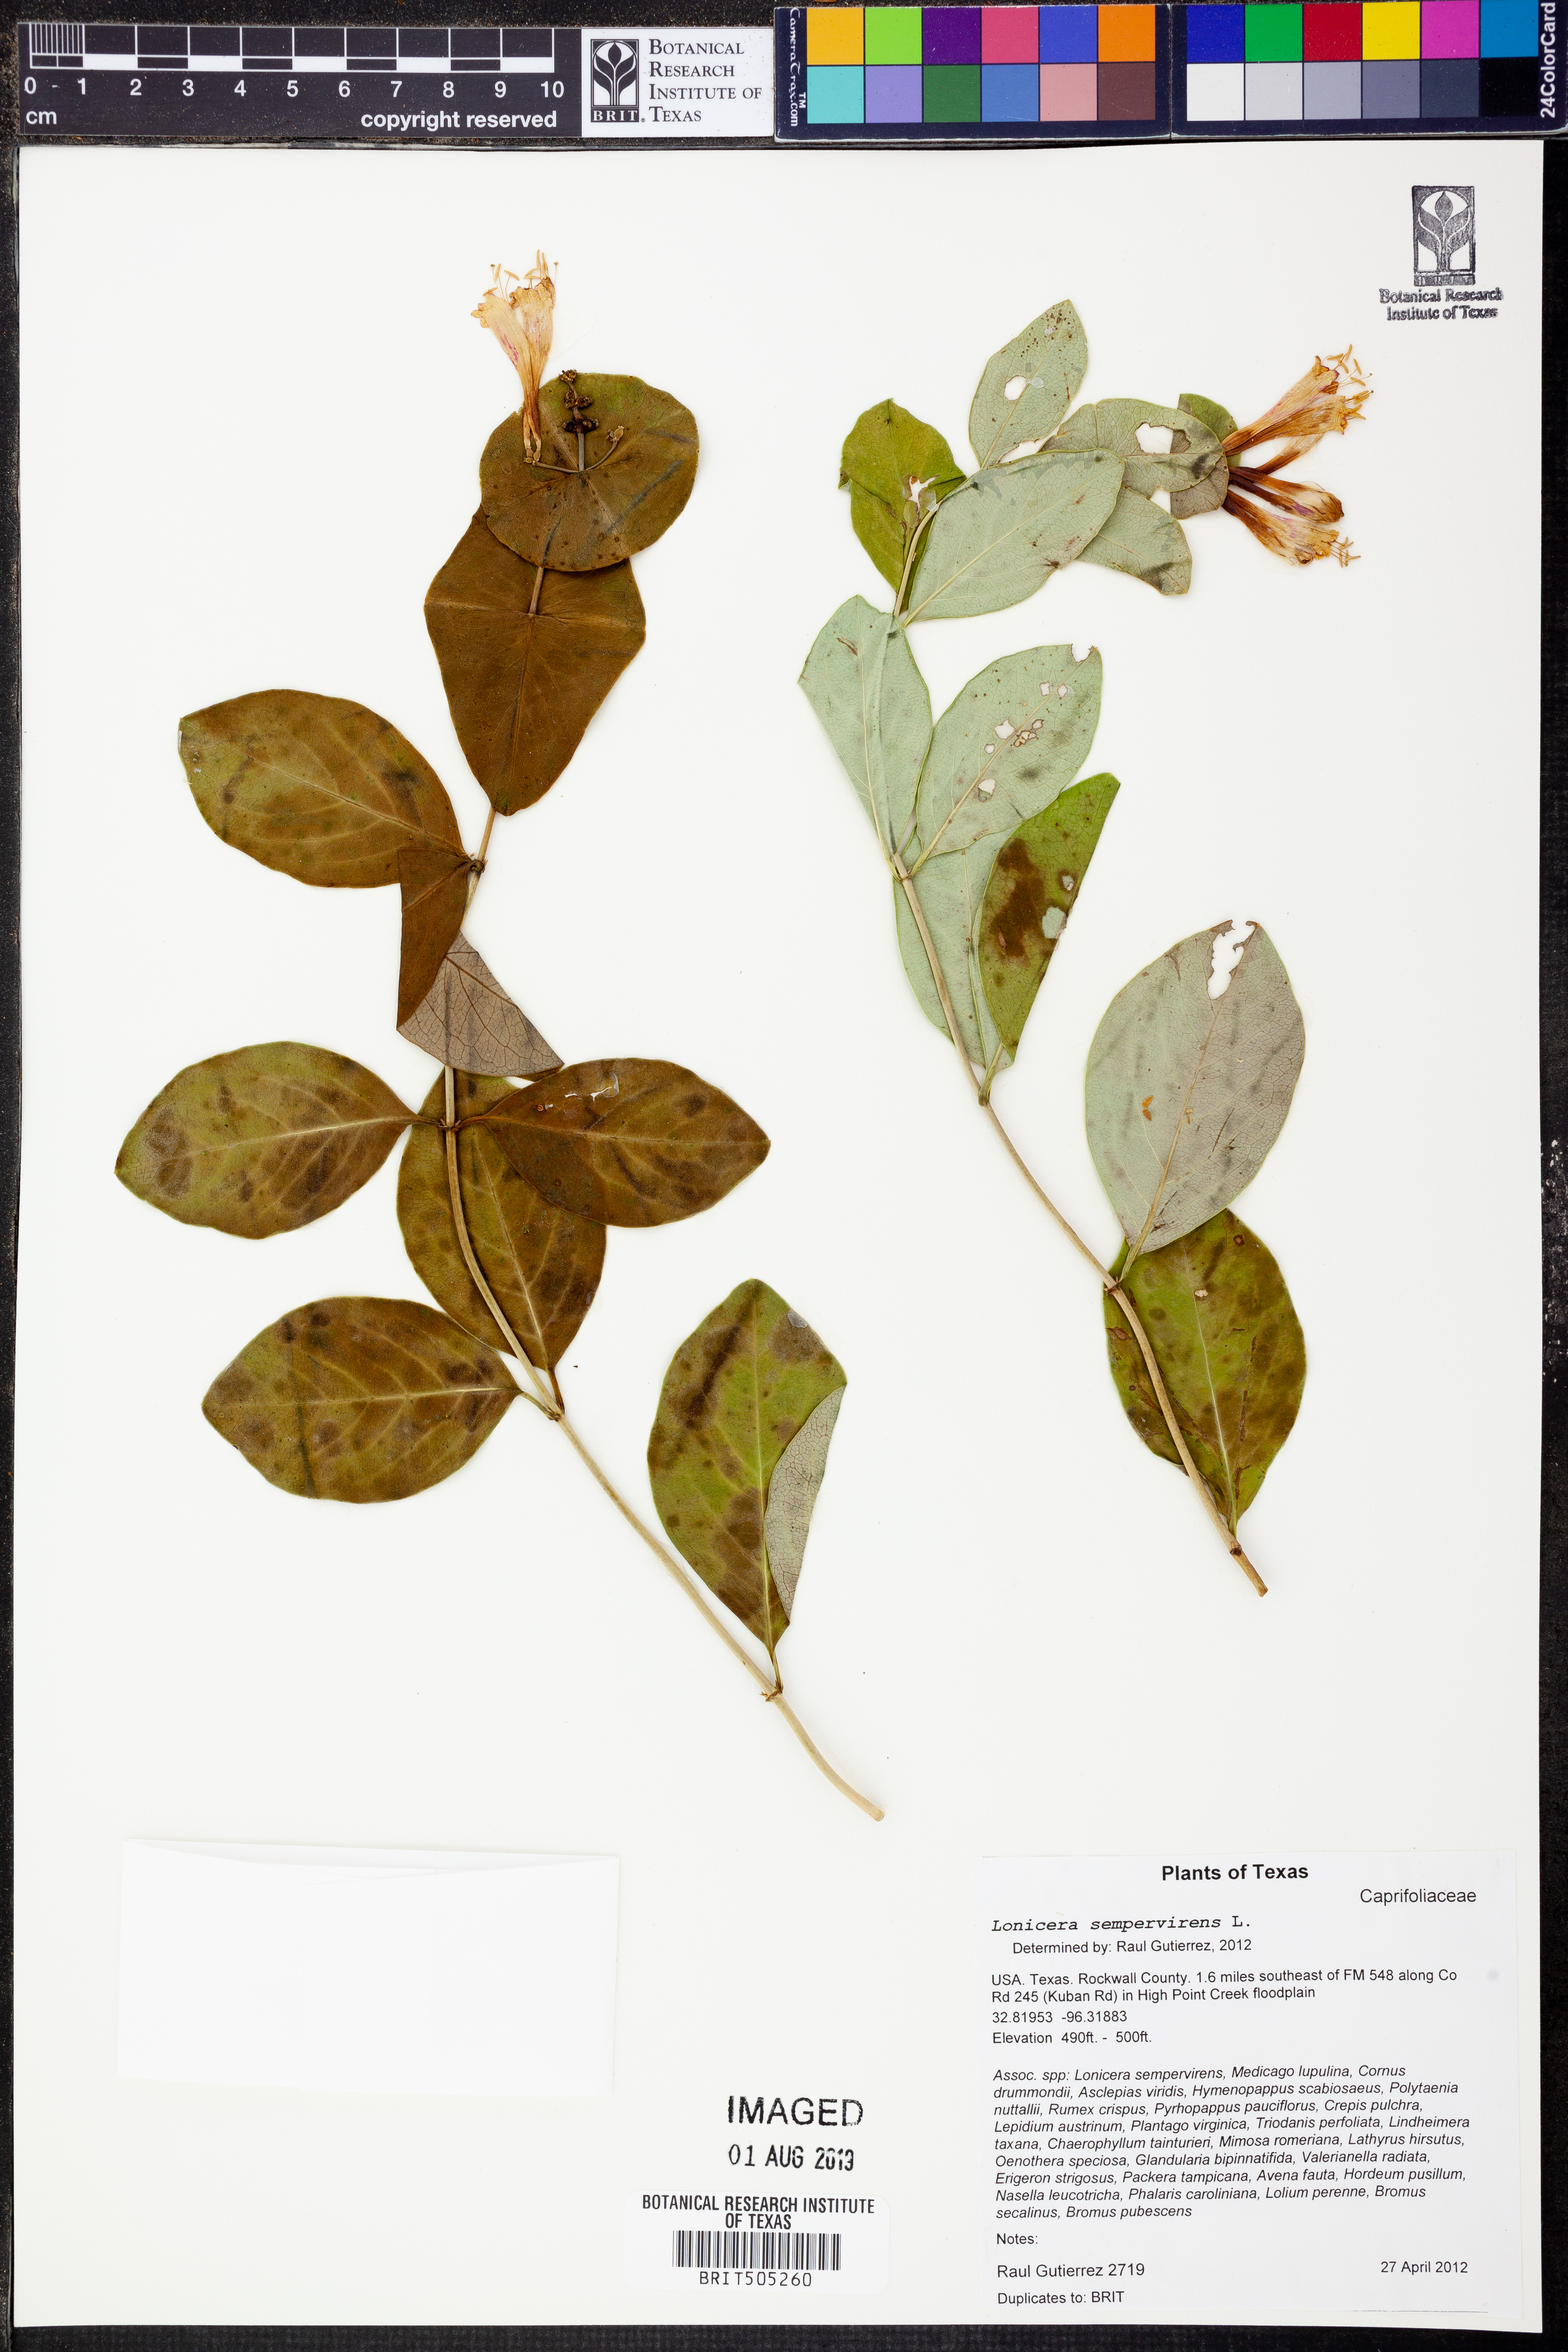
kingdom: Plantae
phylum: Tracheophyta
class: Magnoliopsida
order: Dipsacales
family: Caprifoliaceae
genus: Lonicera
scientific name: Lonicera sempervirens
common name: Coral honeysuckle
